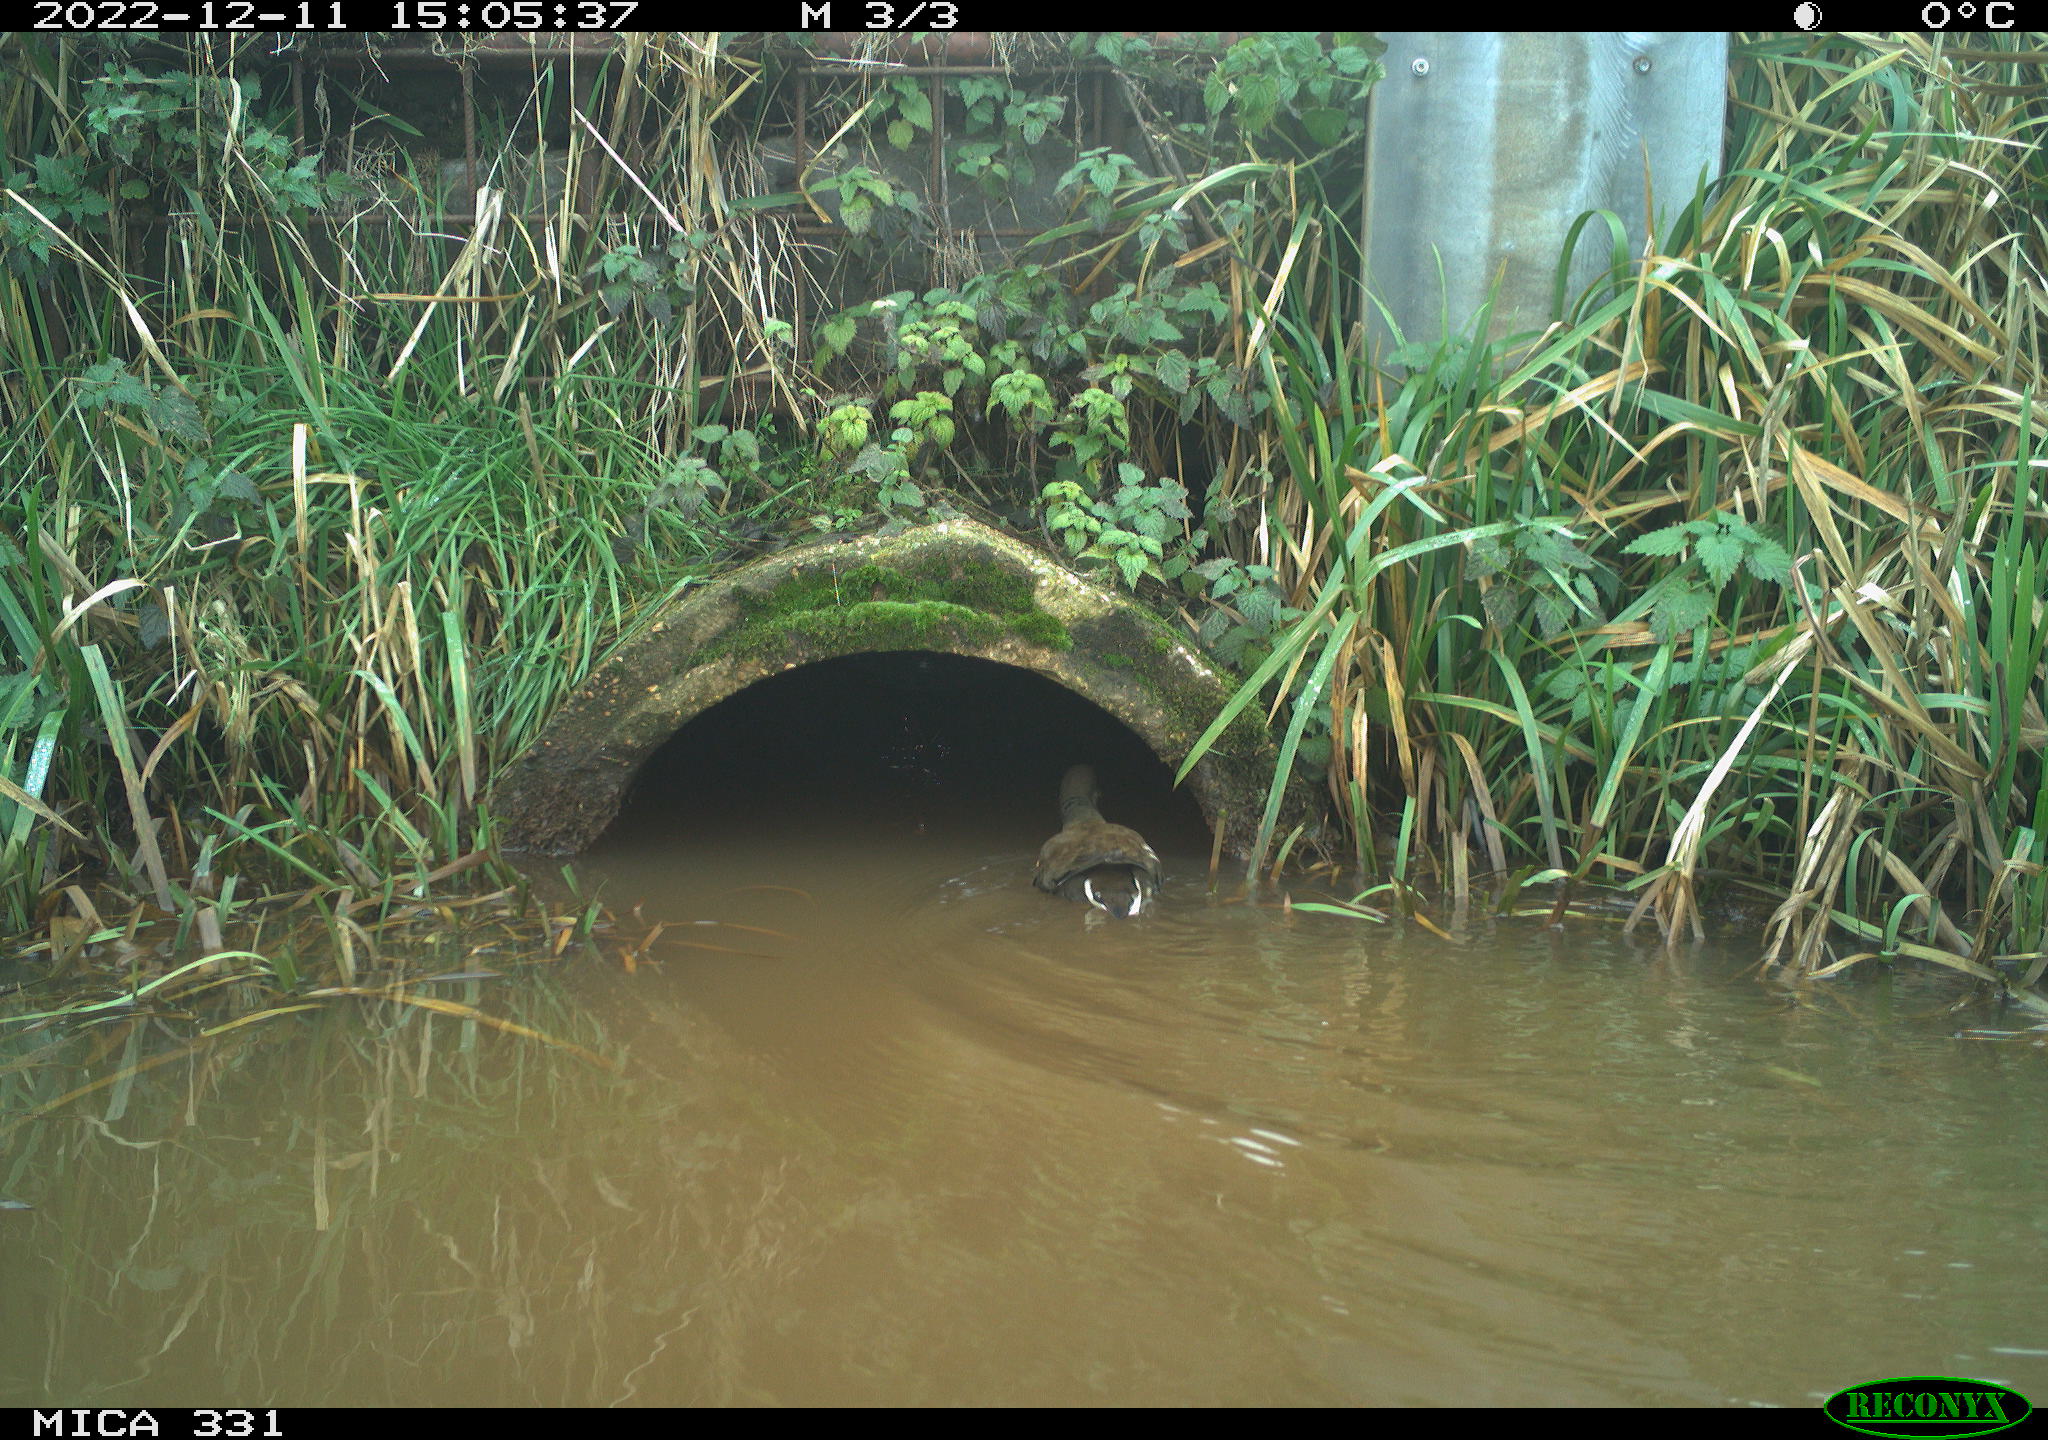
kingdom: Animalia
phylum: Chordata
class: Aves
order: Gruiformes
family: Rallidae
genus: Gallinula
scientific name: Gallinula chloropus
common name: Common moorhen
